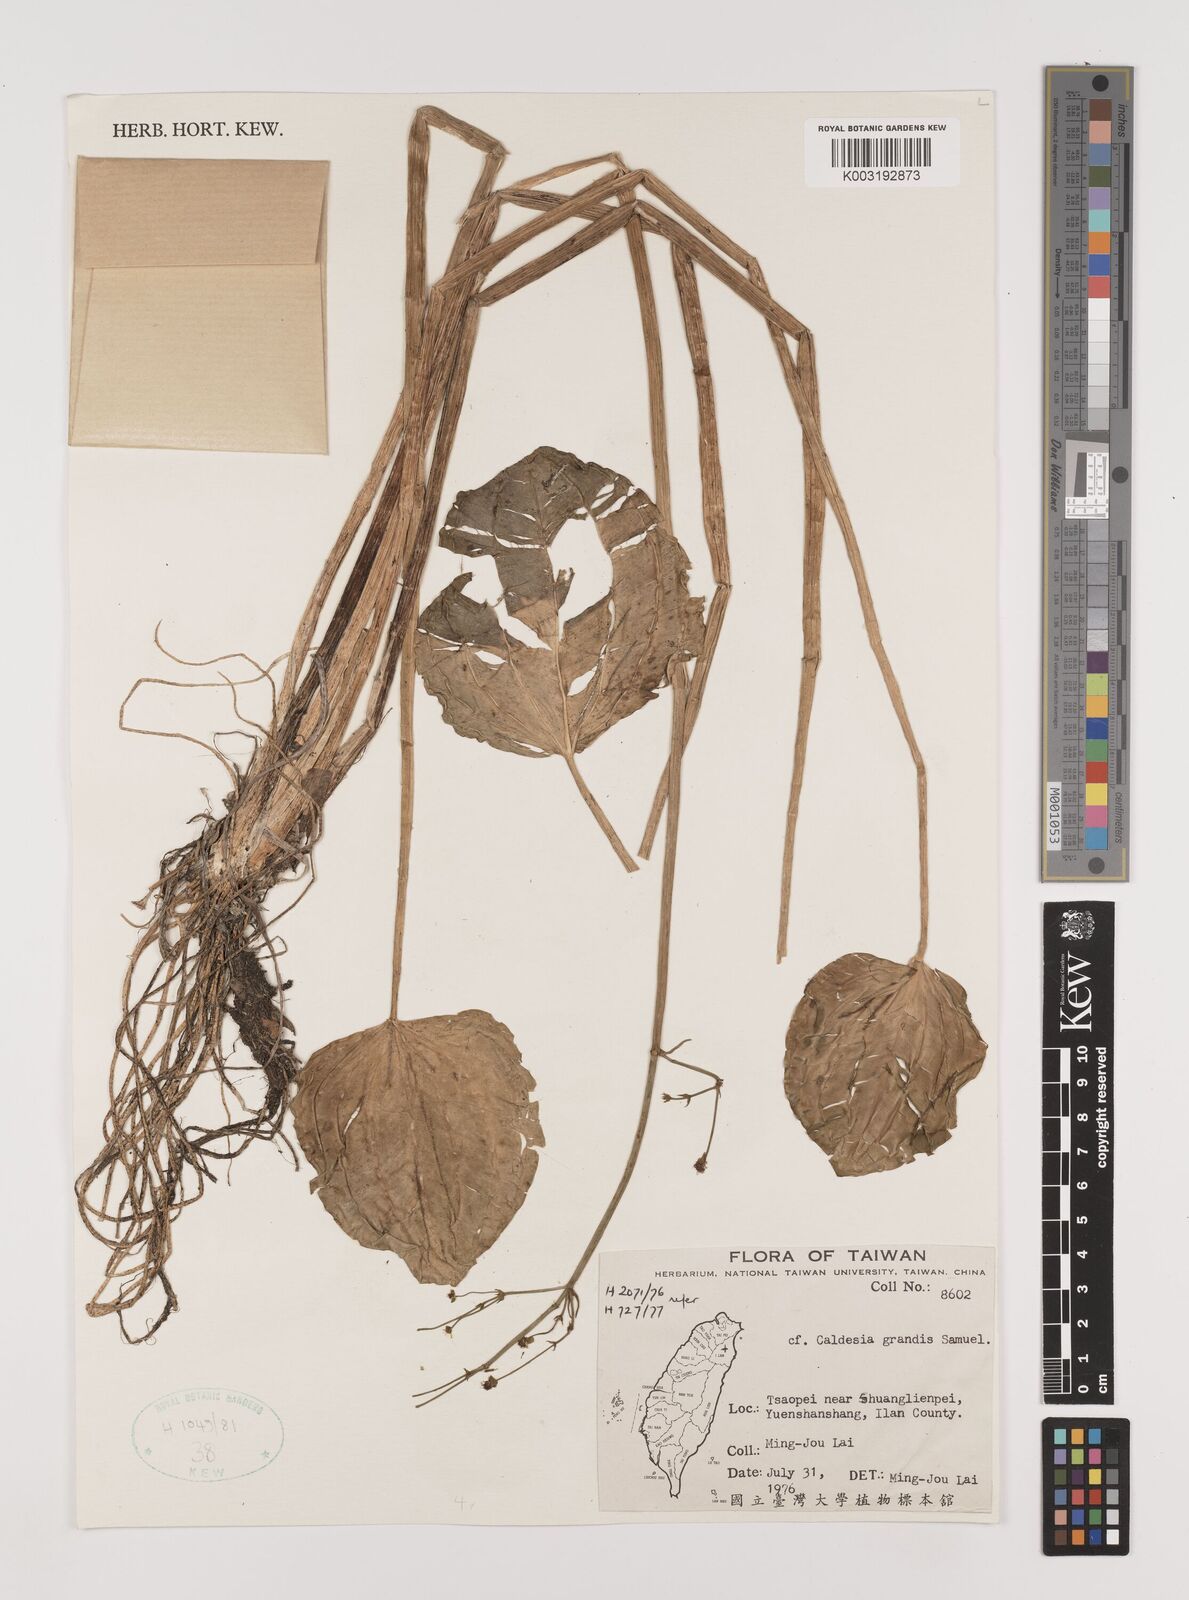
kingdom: Plantae
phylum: Tracheophyta
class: Liliopsida
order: Alismatales
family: Alismataceae
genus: Caldesia
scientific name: Caldesia
